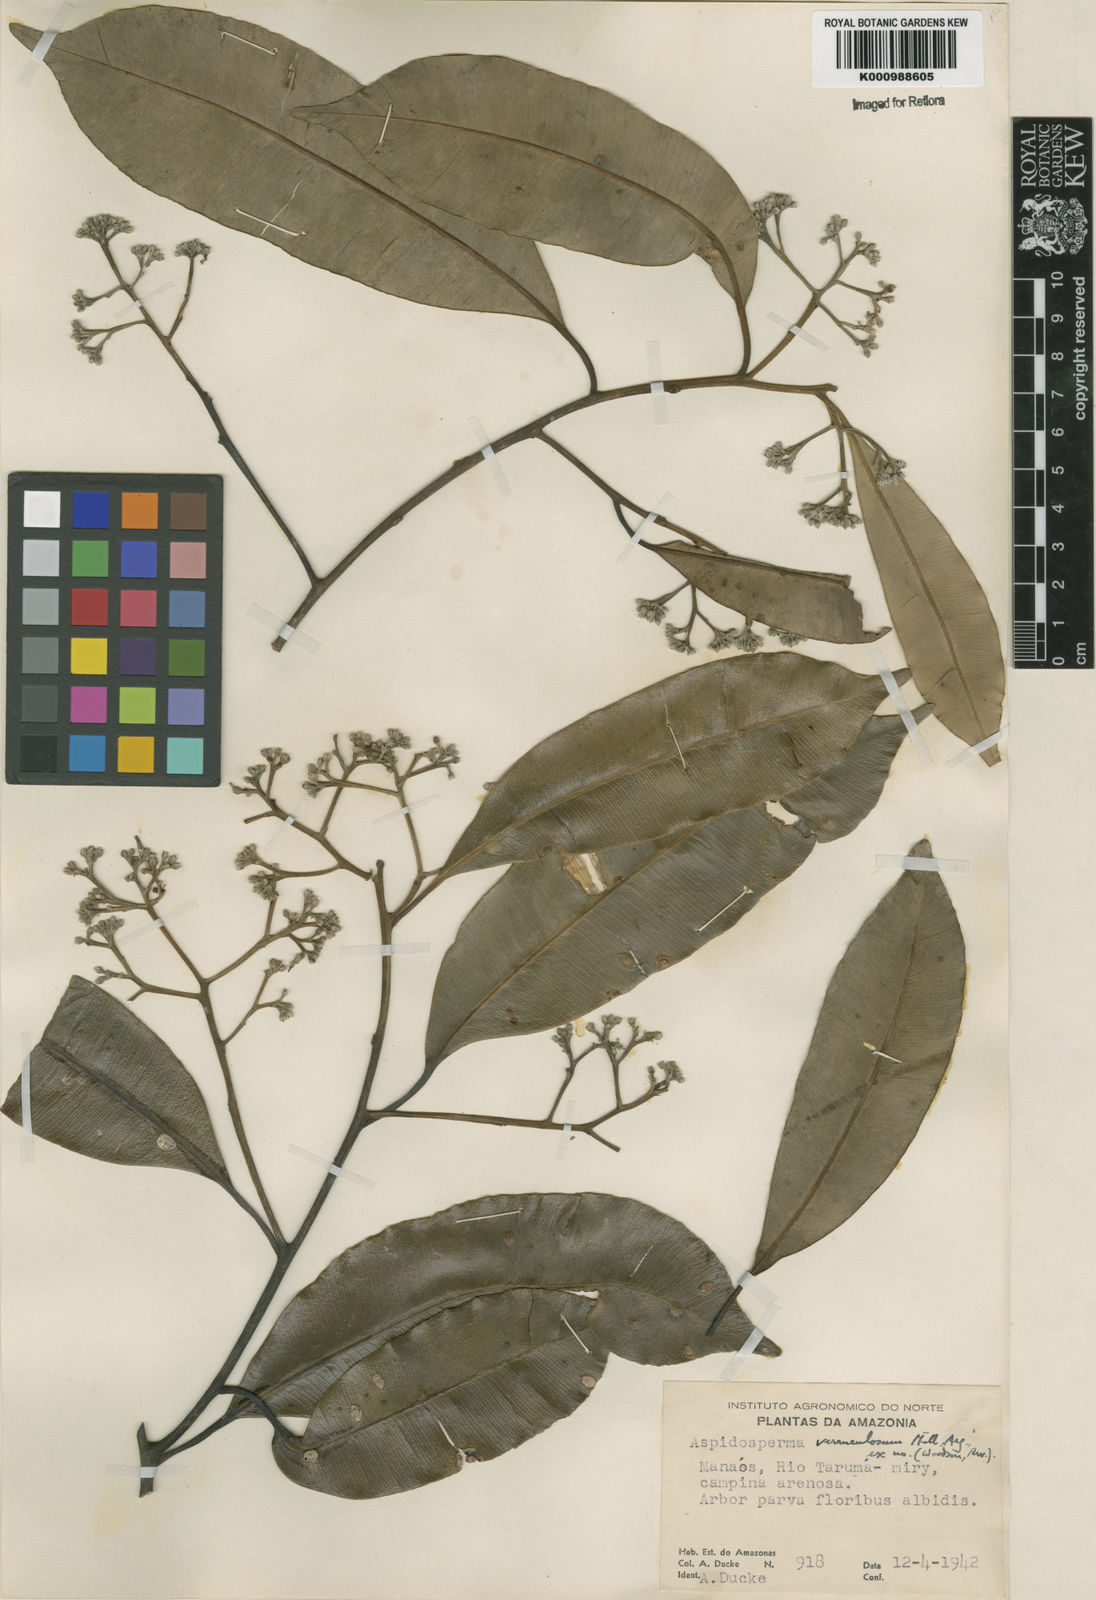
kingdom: Plantae
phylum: Tracheophyta
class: Magnoliopsida
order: Gentianales
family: Apocynaceae
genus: Aspidosperma
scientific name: Aspidosperma
